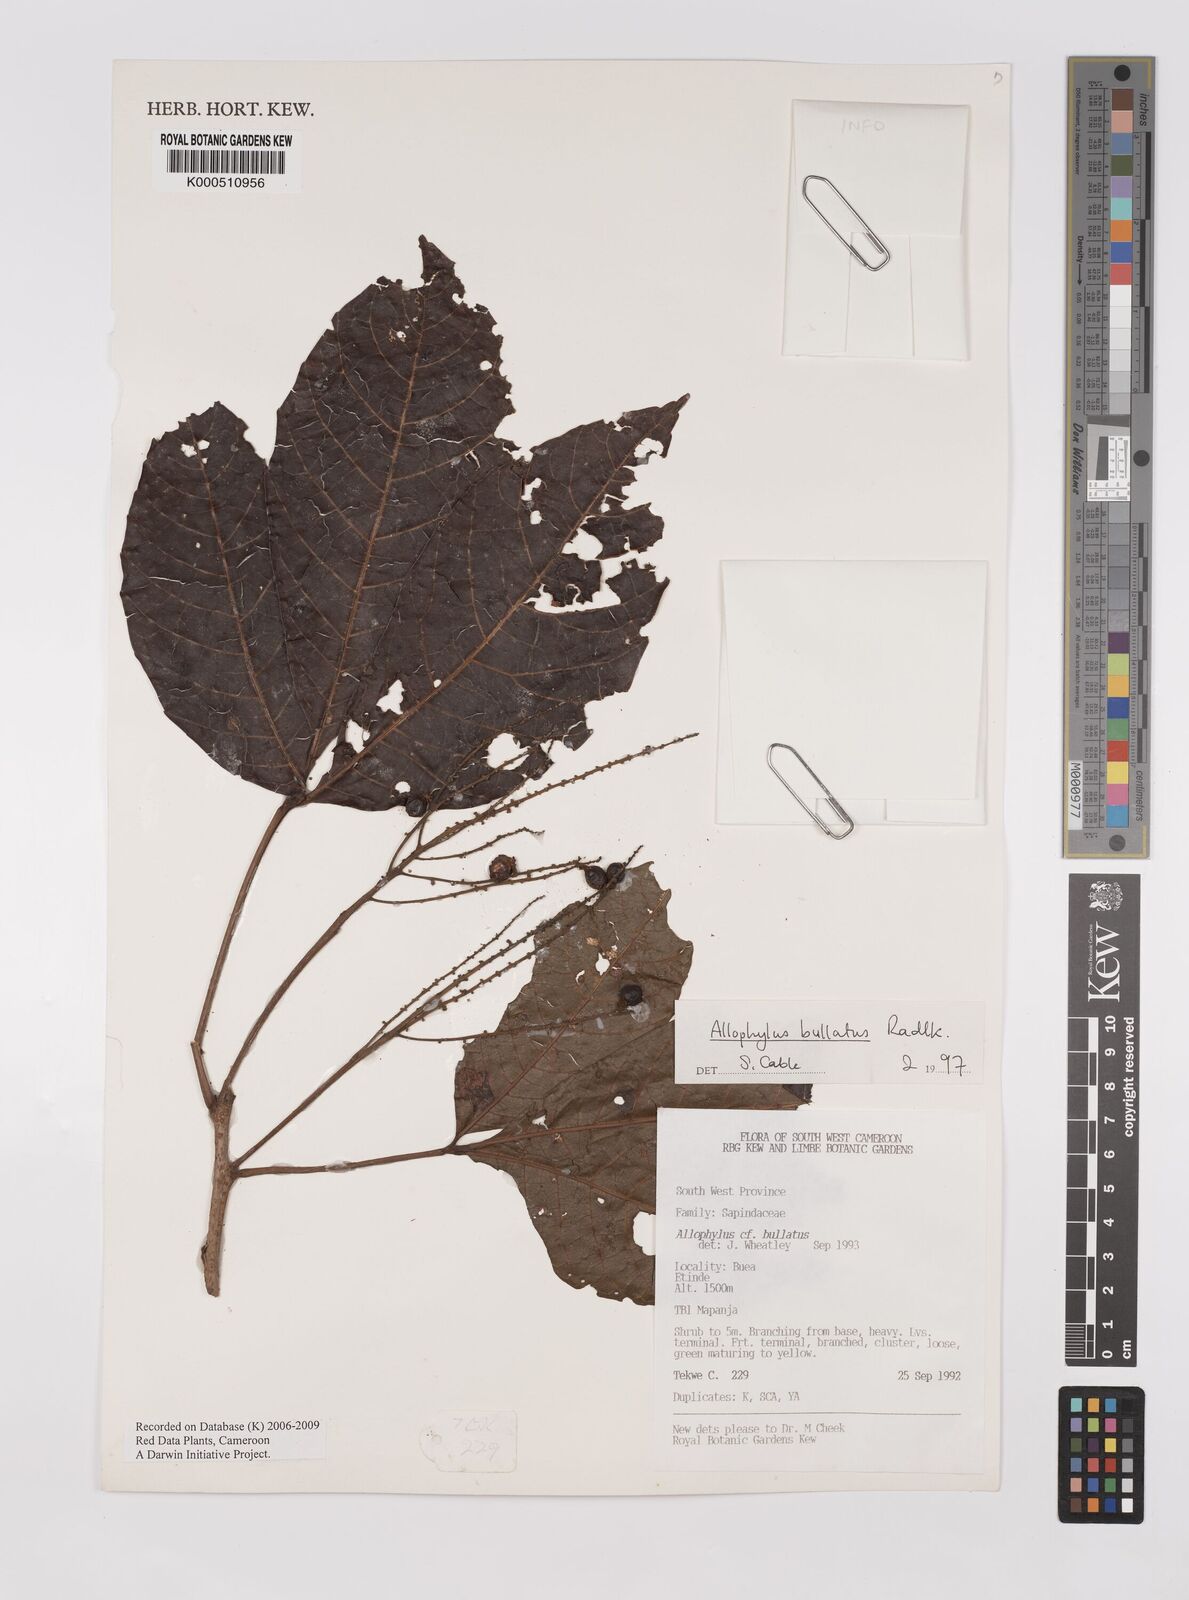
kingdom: Plantae
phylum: Tracheophyta
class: Magnoliopsida
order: Sapindales
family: Sapindaceae
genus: Allophylus
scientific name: Allophylus bullatus
